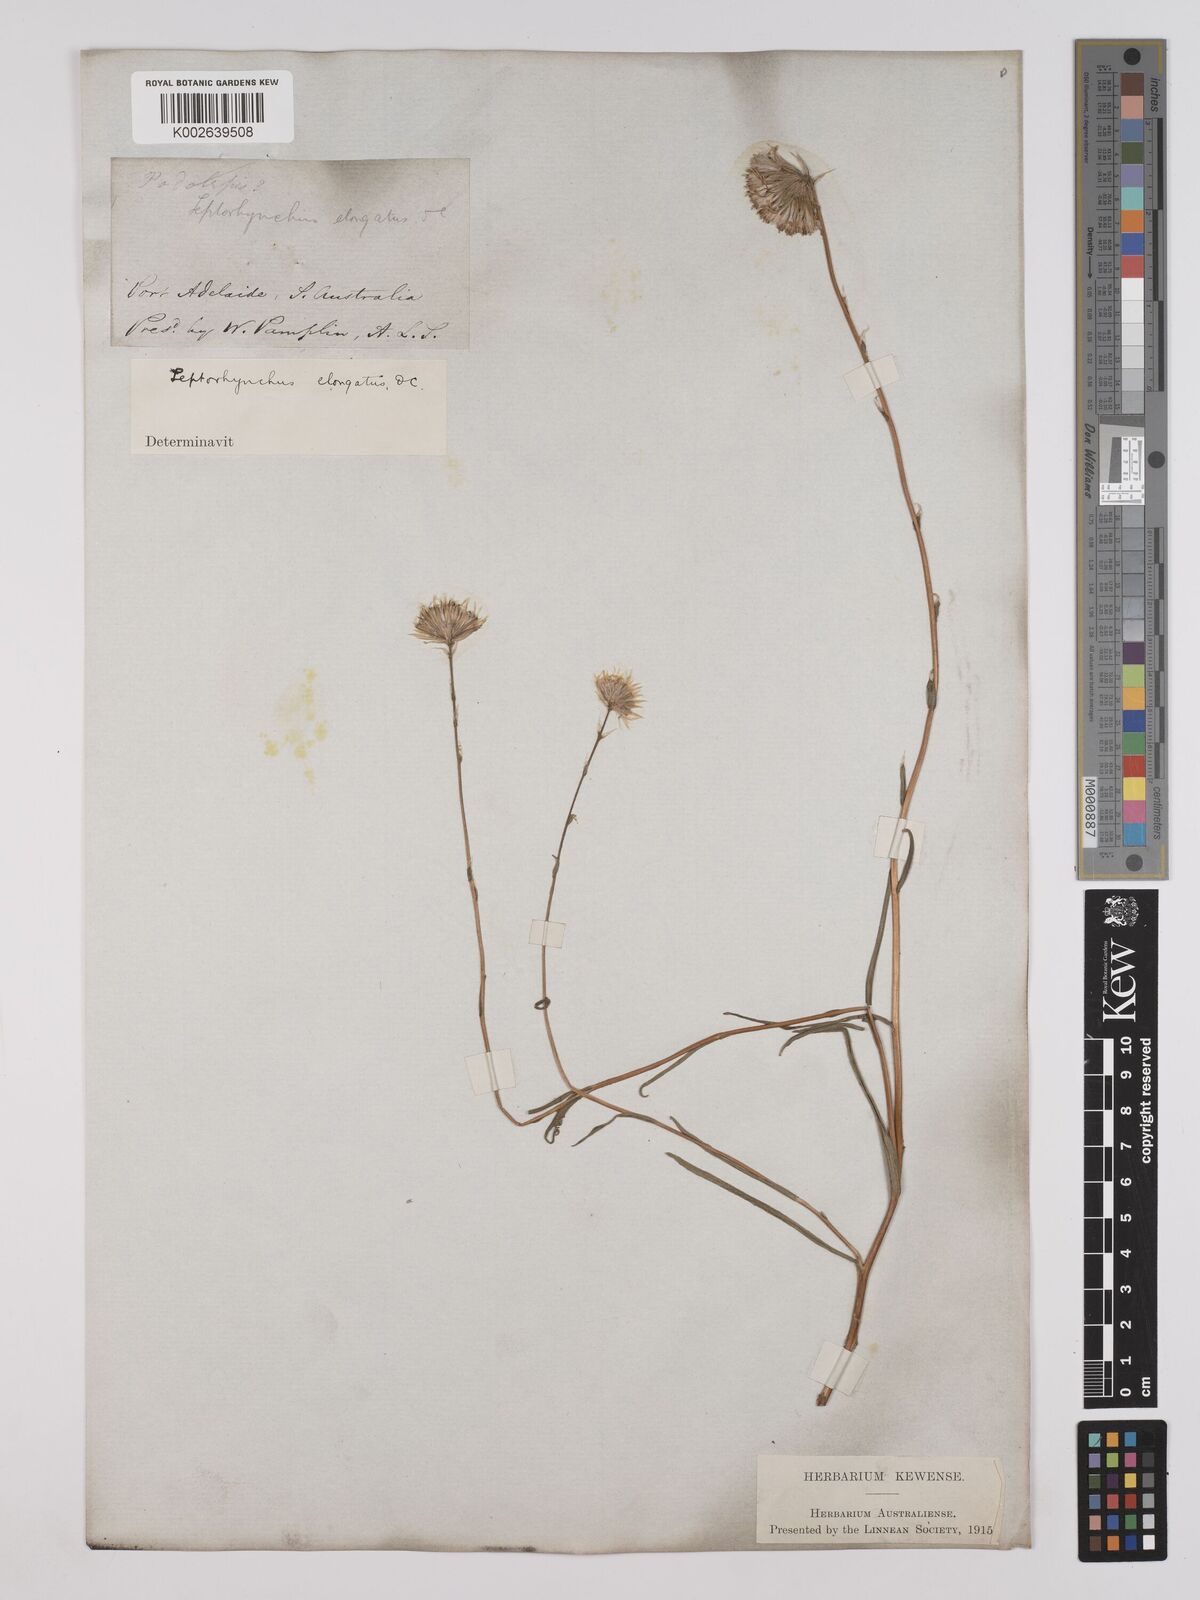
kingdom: Plantae
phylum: Tracheophyta
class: Magnoliopsida
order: Asterales
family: Asteraceae
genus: Leptorhynchos
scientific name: Leptorhynchos elongatus
